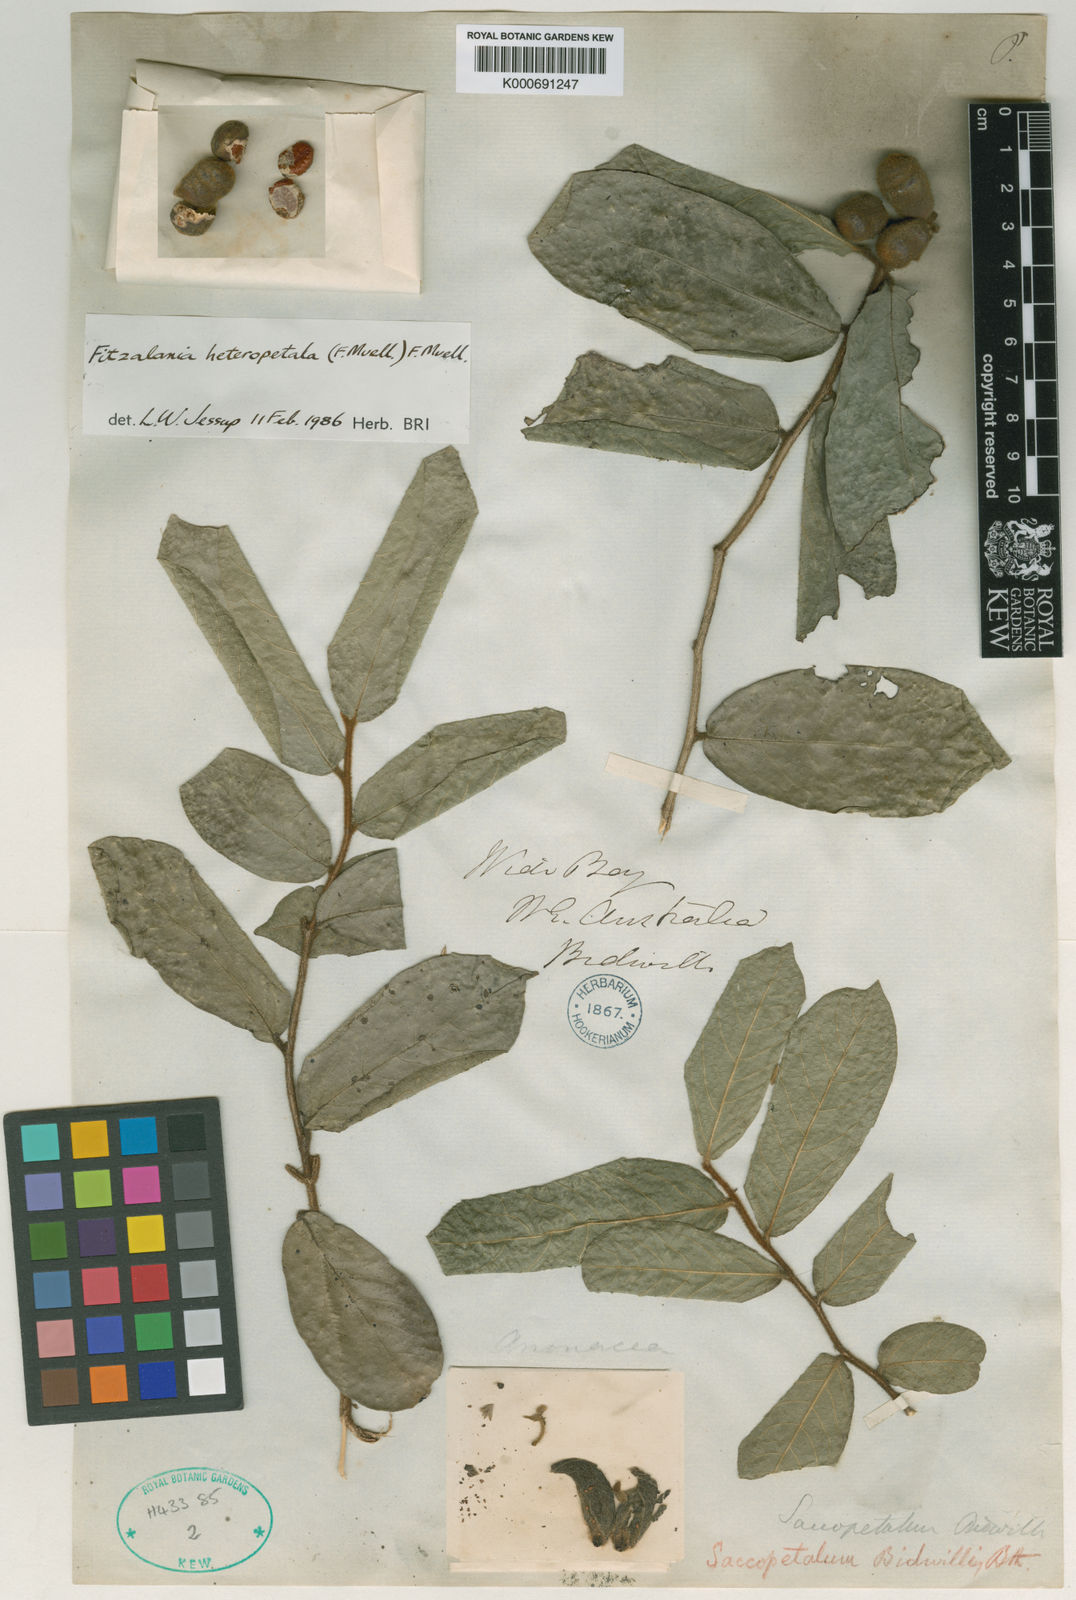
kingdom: Plantae
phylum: Tracheophyta
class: Magnoliopsida
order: Magnoliales
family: Annonaceae
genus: Fitzalania
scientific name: Fitzalania heteropetala
